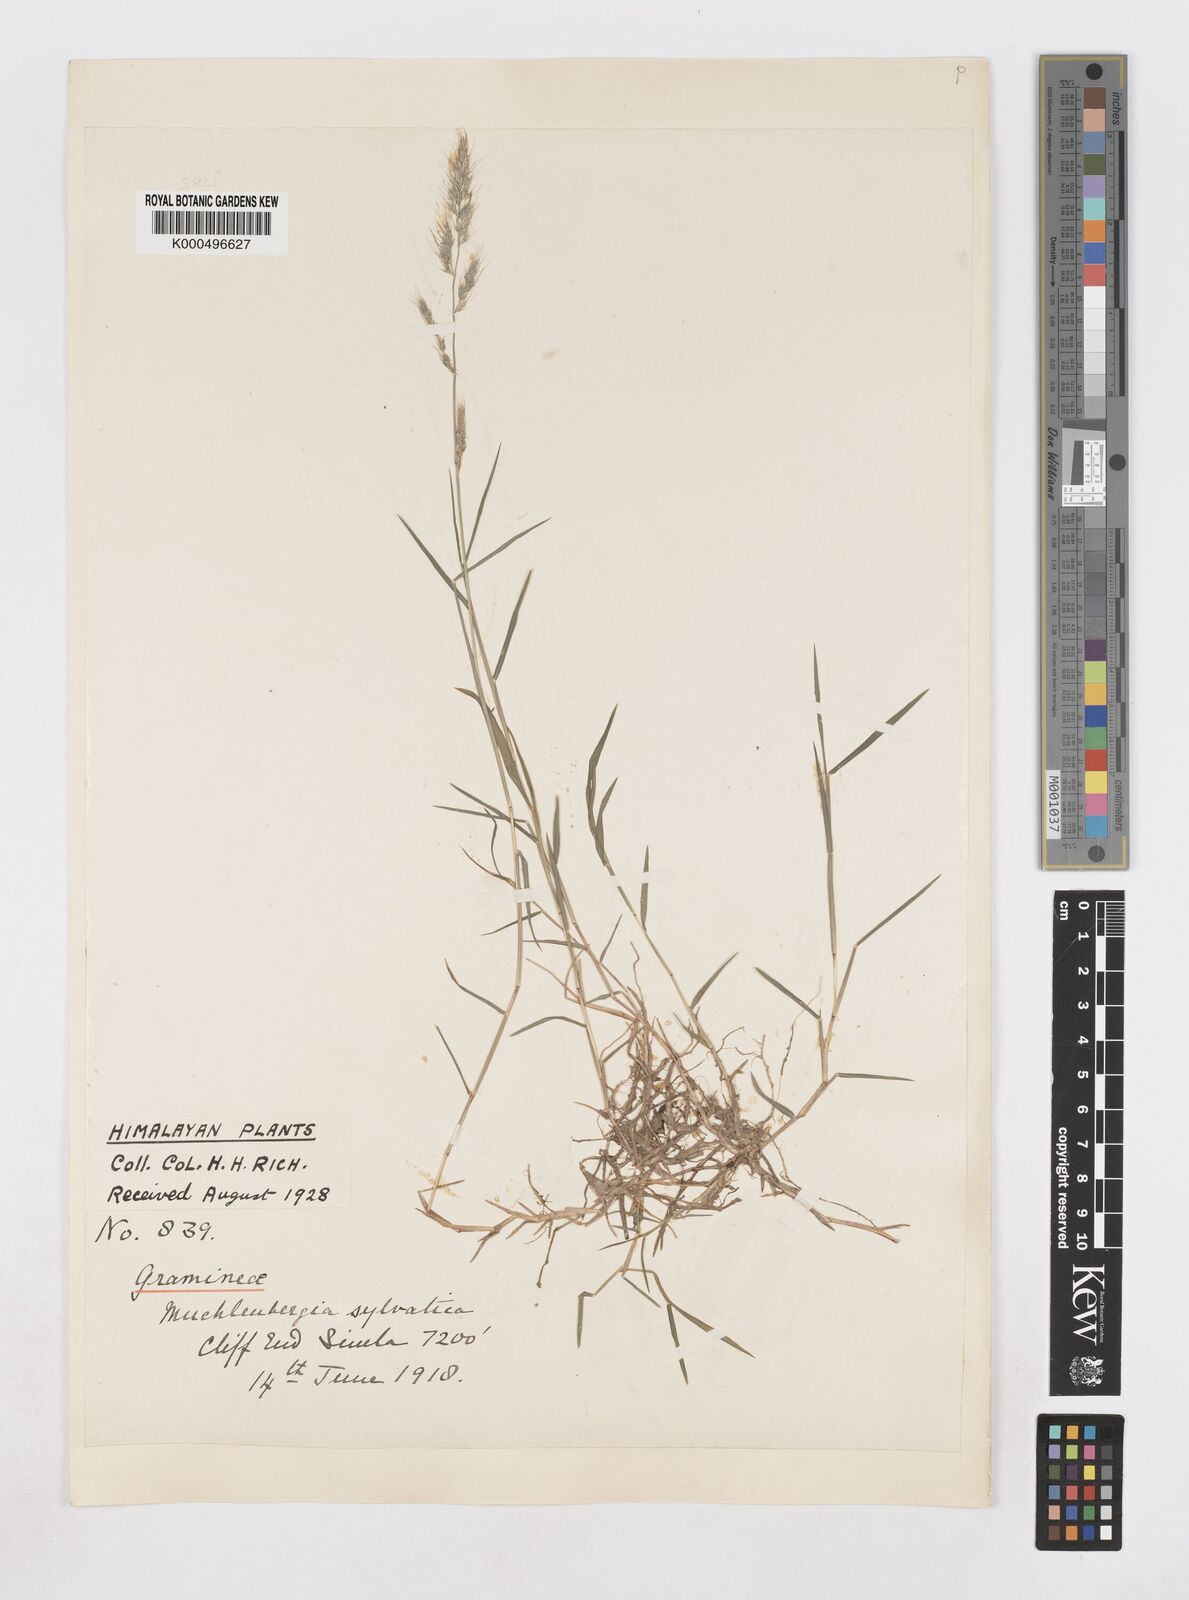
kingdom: Plantae
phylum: Tracheophyta
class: Liliopsida
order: Poales
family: Poaceae
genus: Muhlenbergia
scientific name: Muhlenbergia duthieana
